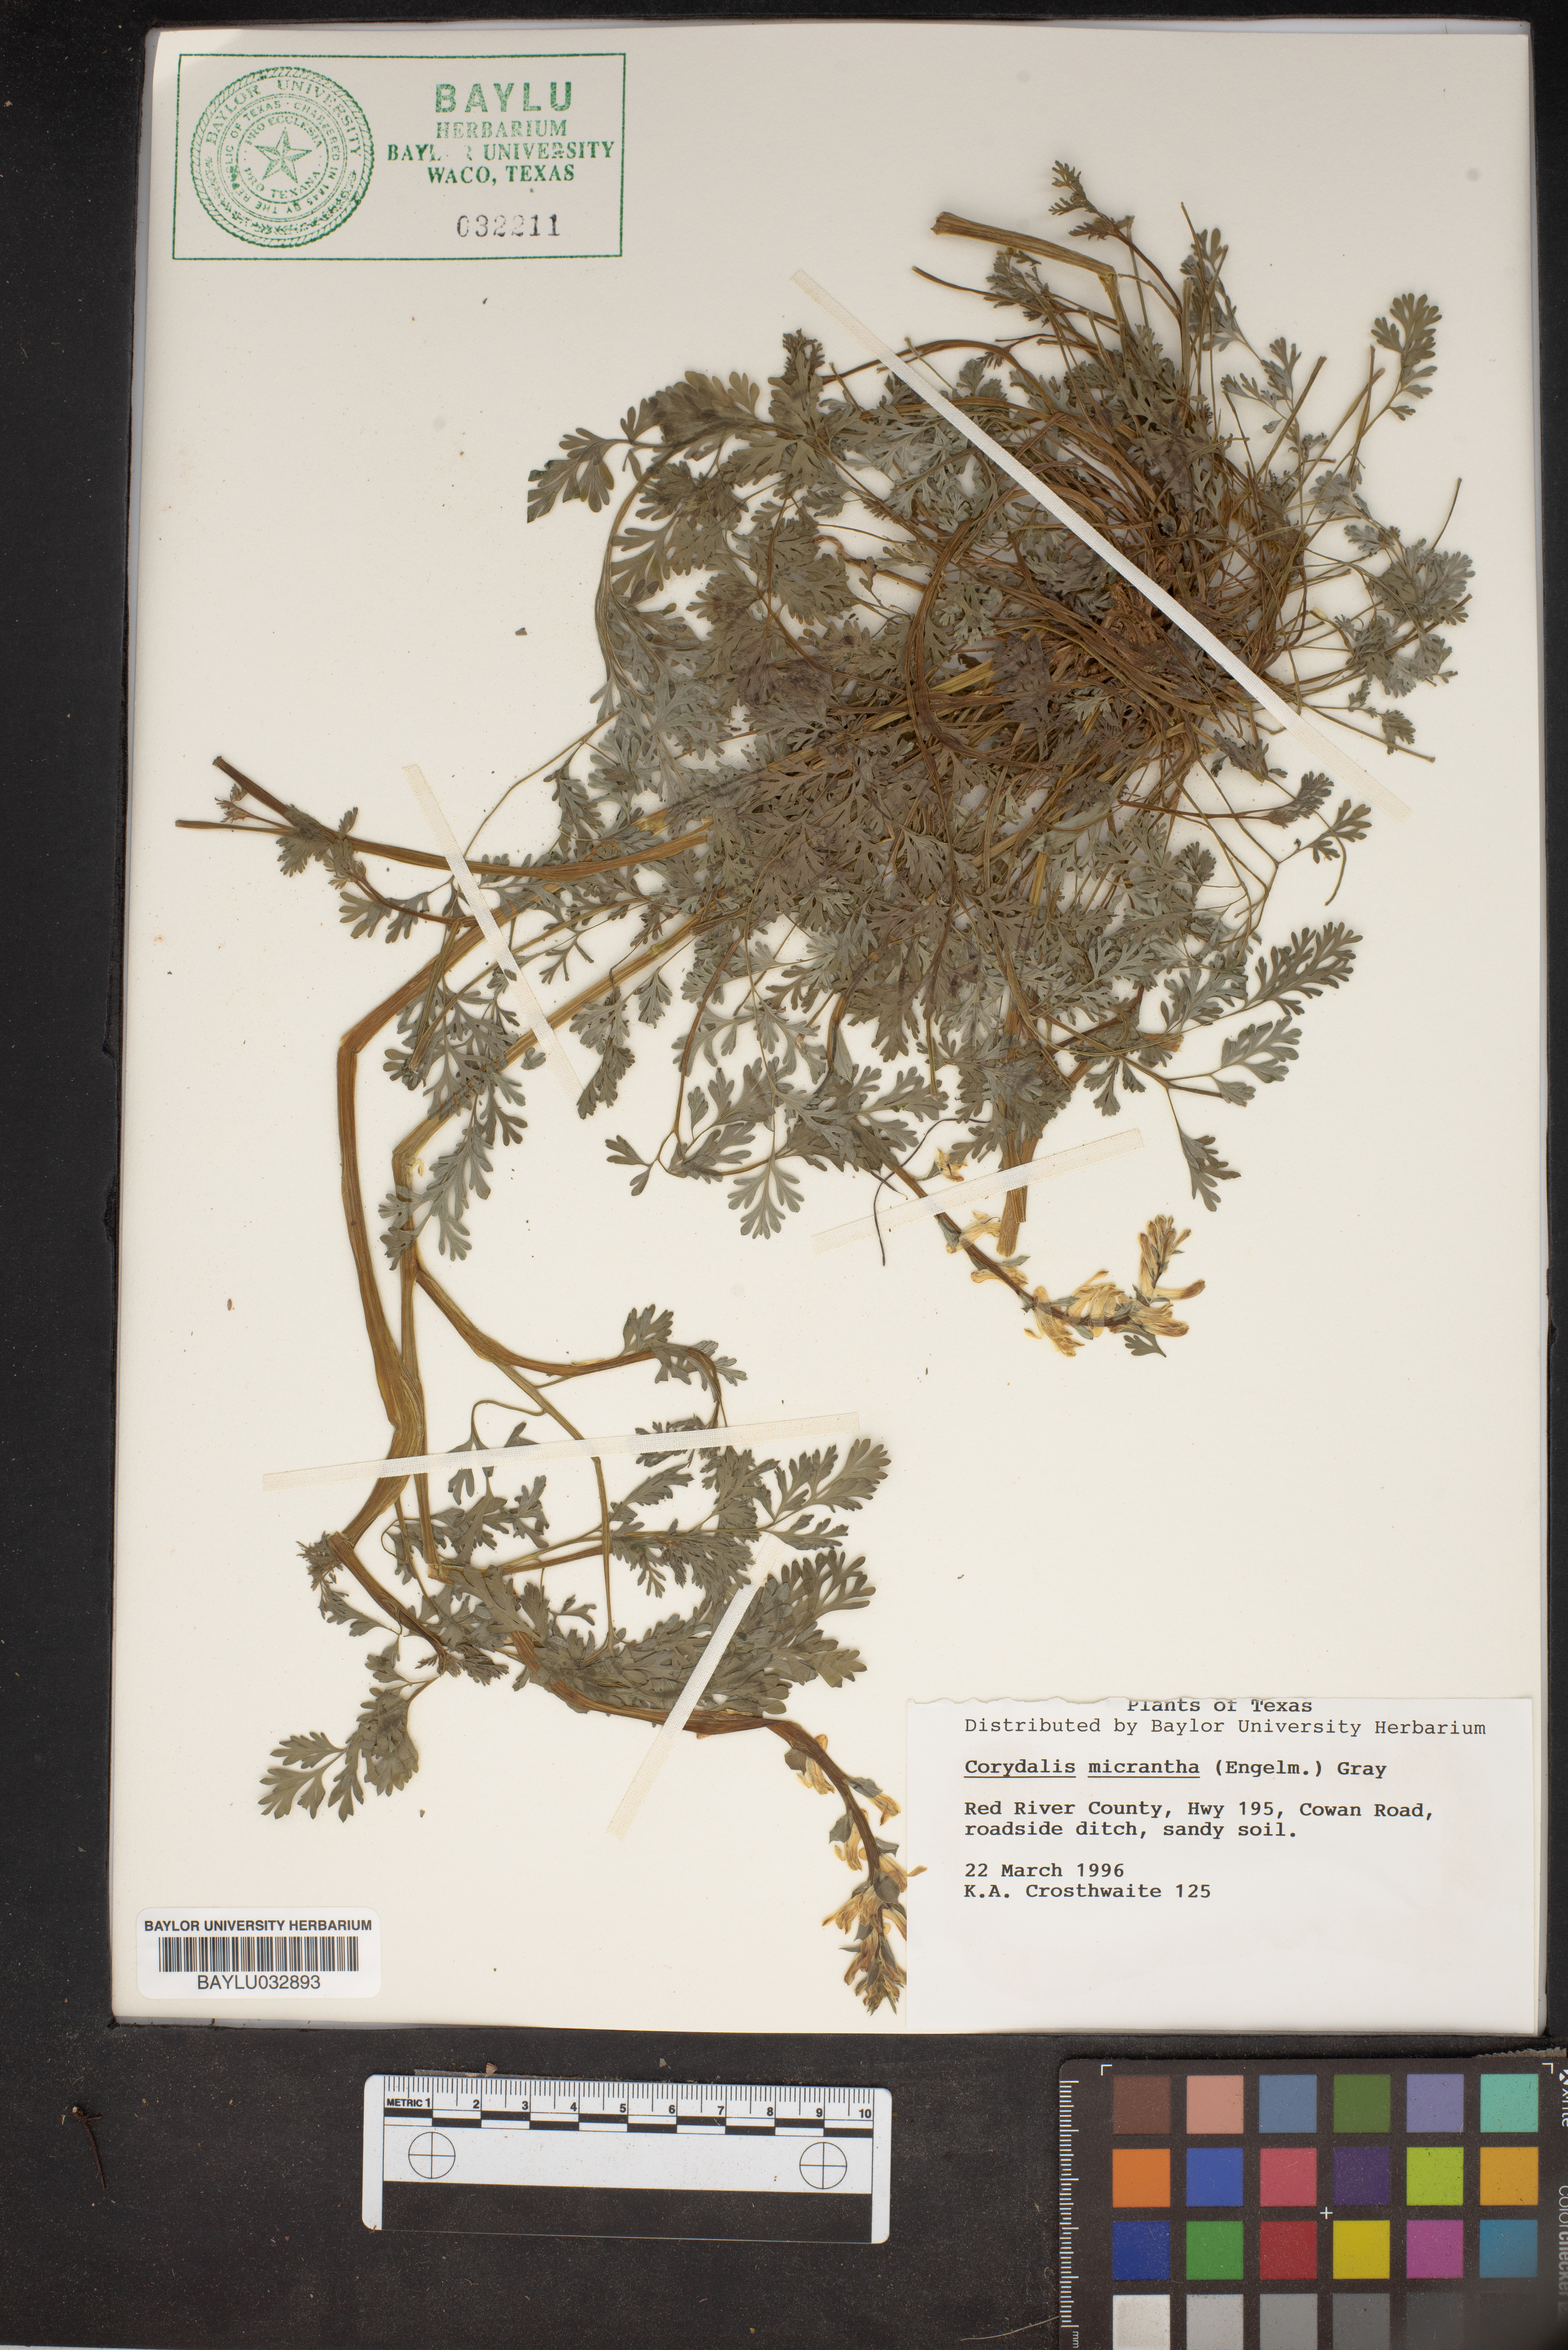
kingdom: Plantae
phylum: Tracheophyta
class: Magnoliopsida
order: Ranunculales
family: Papaveraceae
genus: Corydalis
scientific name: Corydalis micrantha
